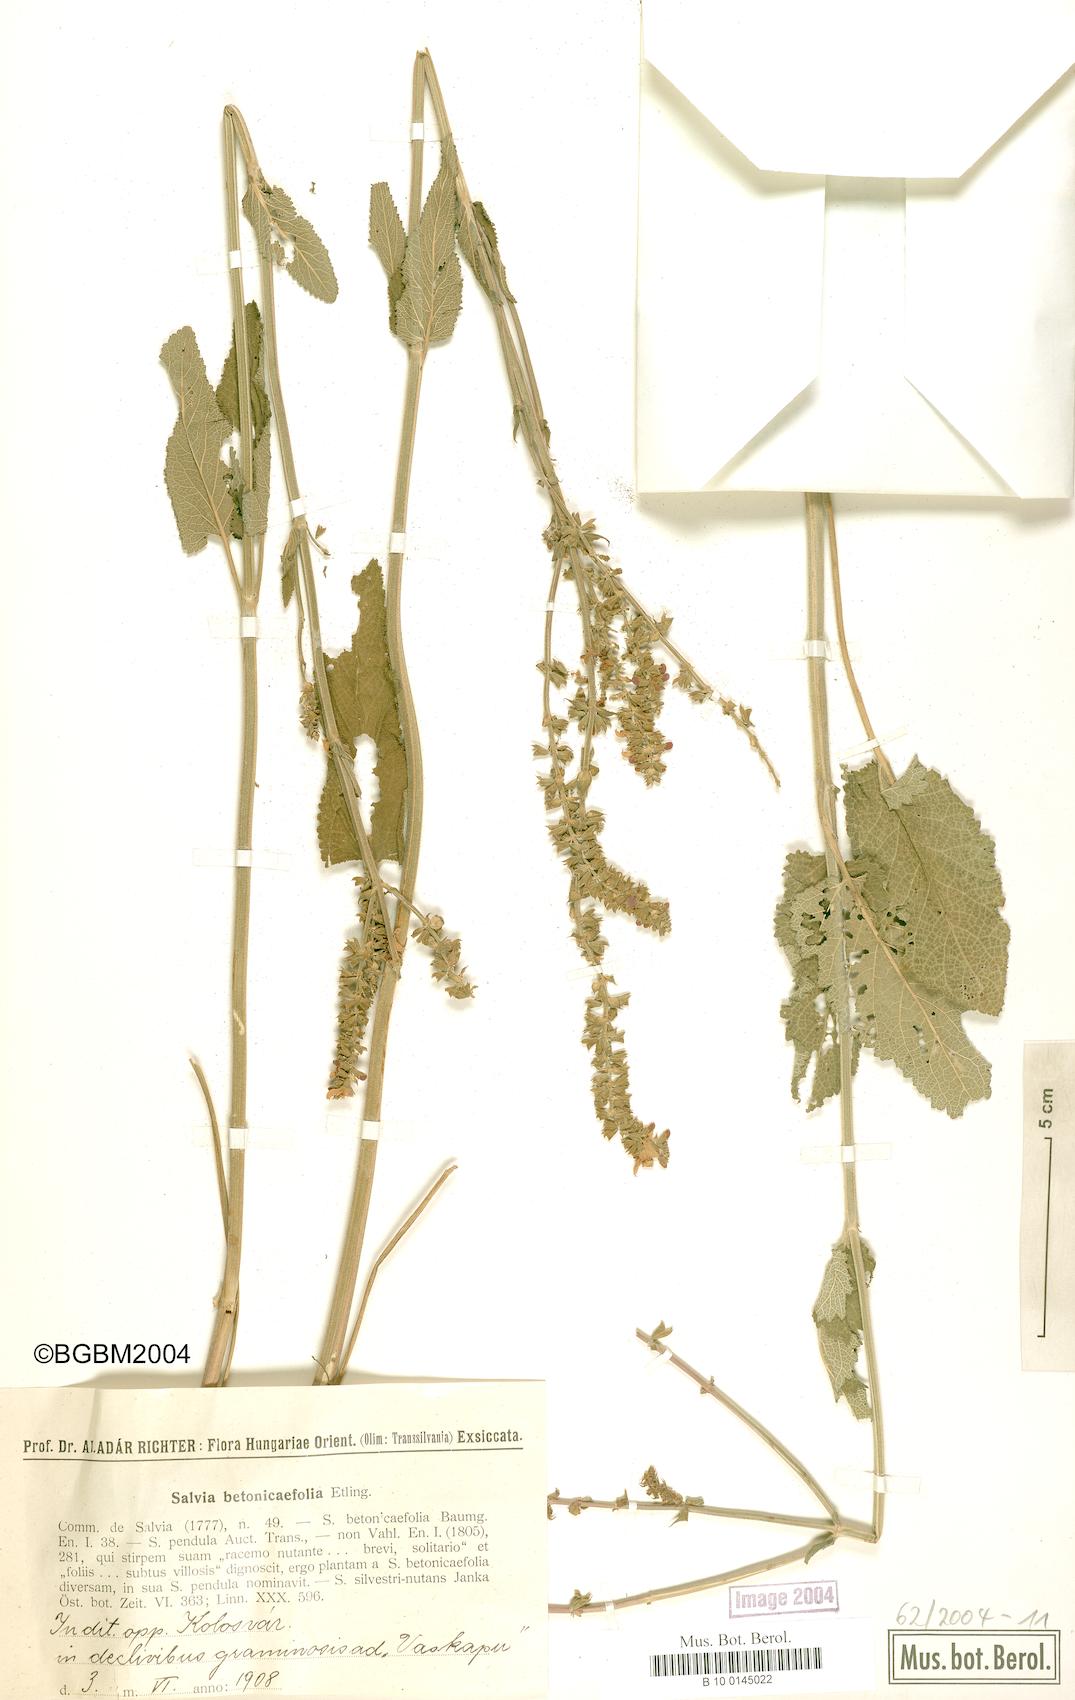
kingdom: Plantae
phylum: Tracheophyta
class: Magnoliopsida
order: Lamiales
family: Lamiaceae
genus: Salvia
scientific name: Salvia
